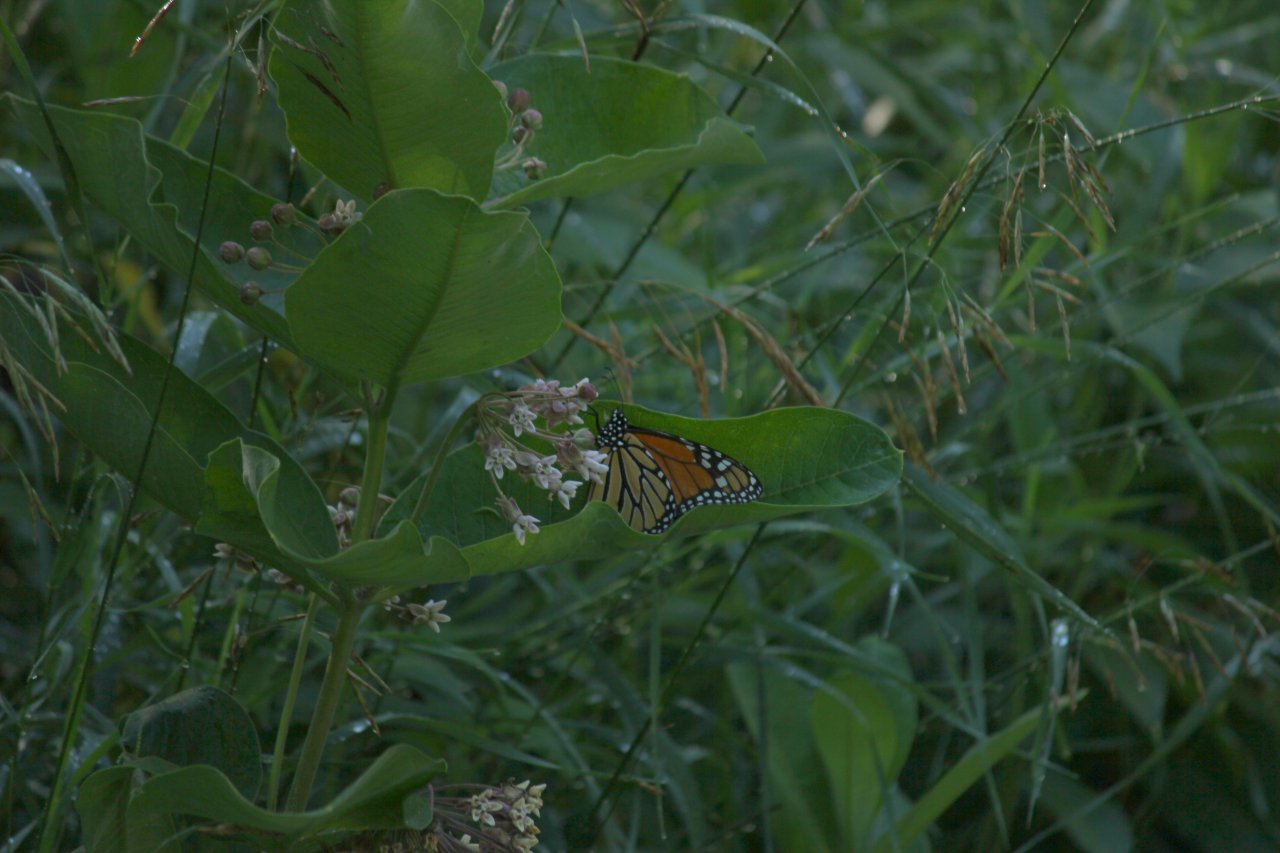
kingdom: Animalia
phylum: Arthropoda
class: Insecta
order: Lepidoptera
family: Nymphalidae
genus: Danaus
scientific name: Danaus plexippus
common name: Monarch
